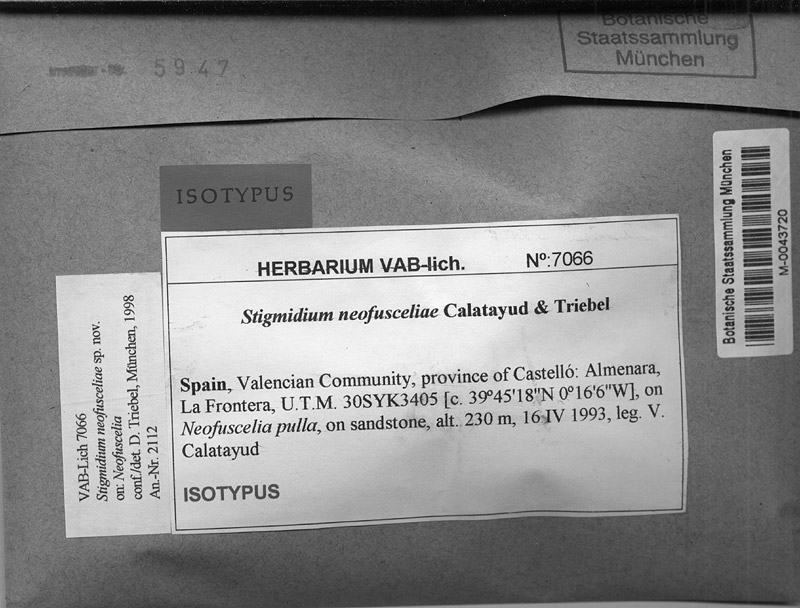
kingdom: Fungi
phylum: Ascomycota
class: Dothideomycetes
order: Mycosphaerellales
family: Mycosphaerellaceae
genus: Stigmidium
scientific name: Stigmidium neofusceliae
